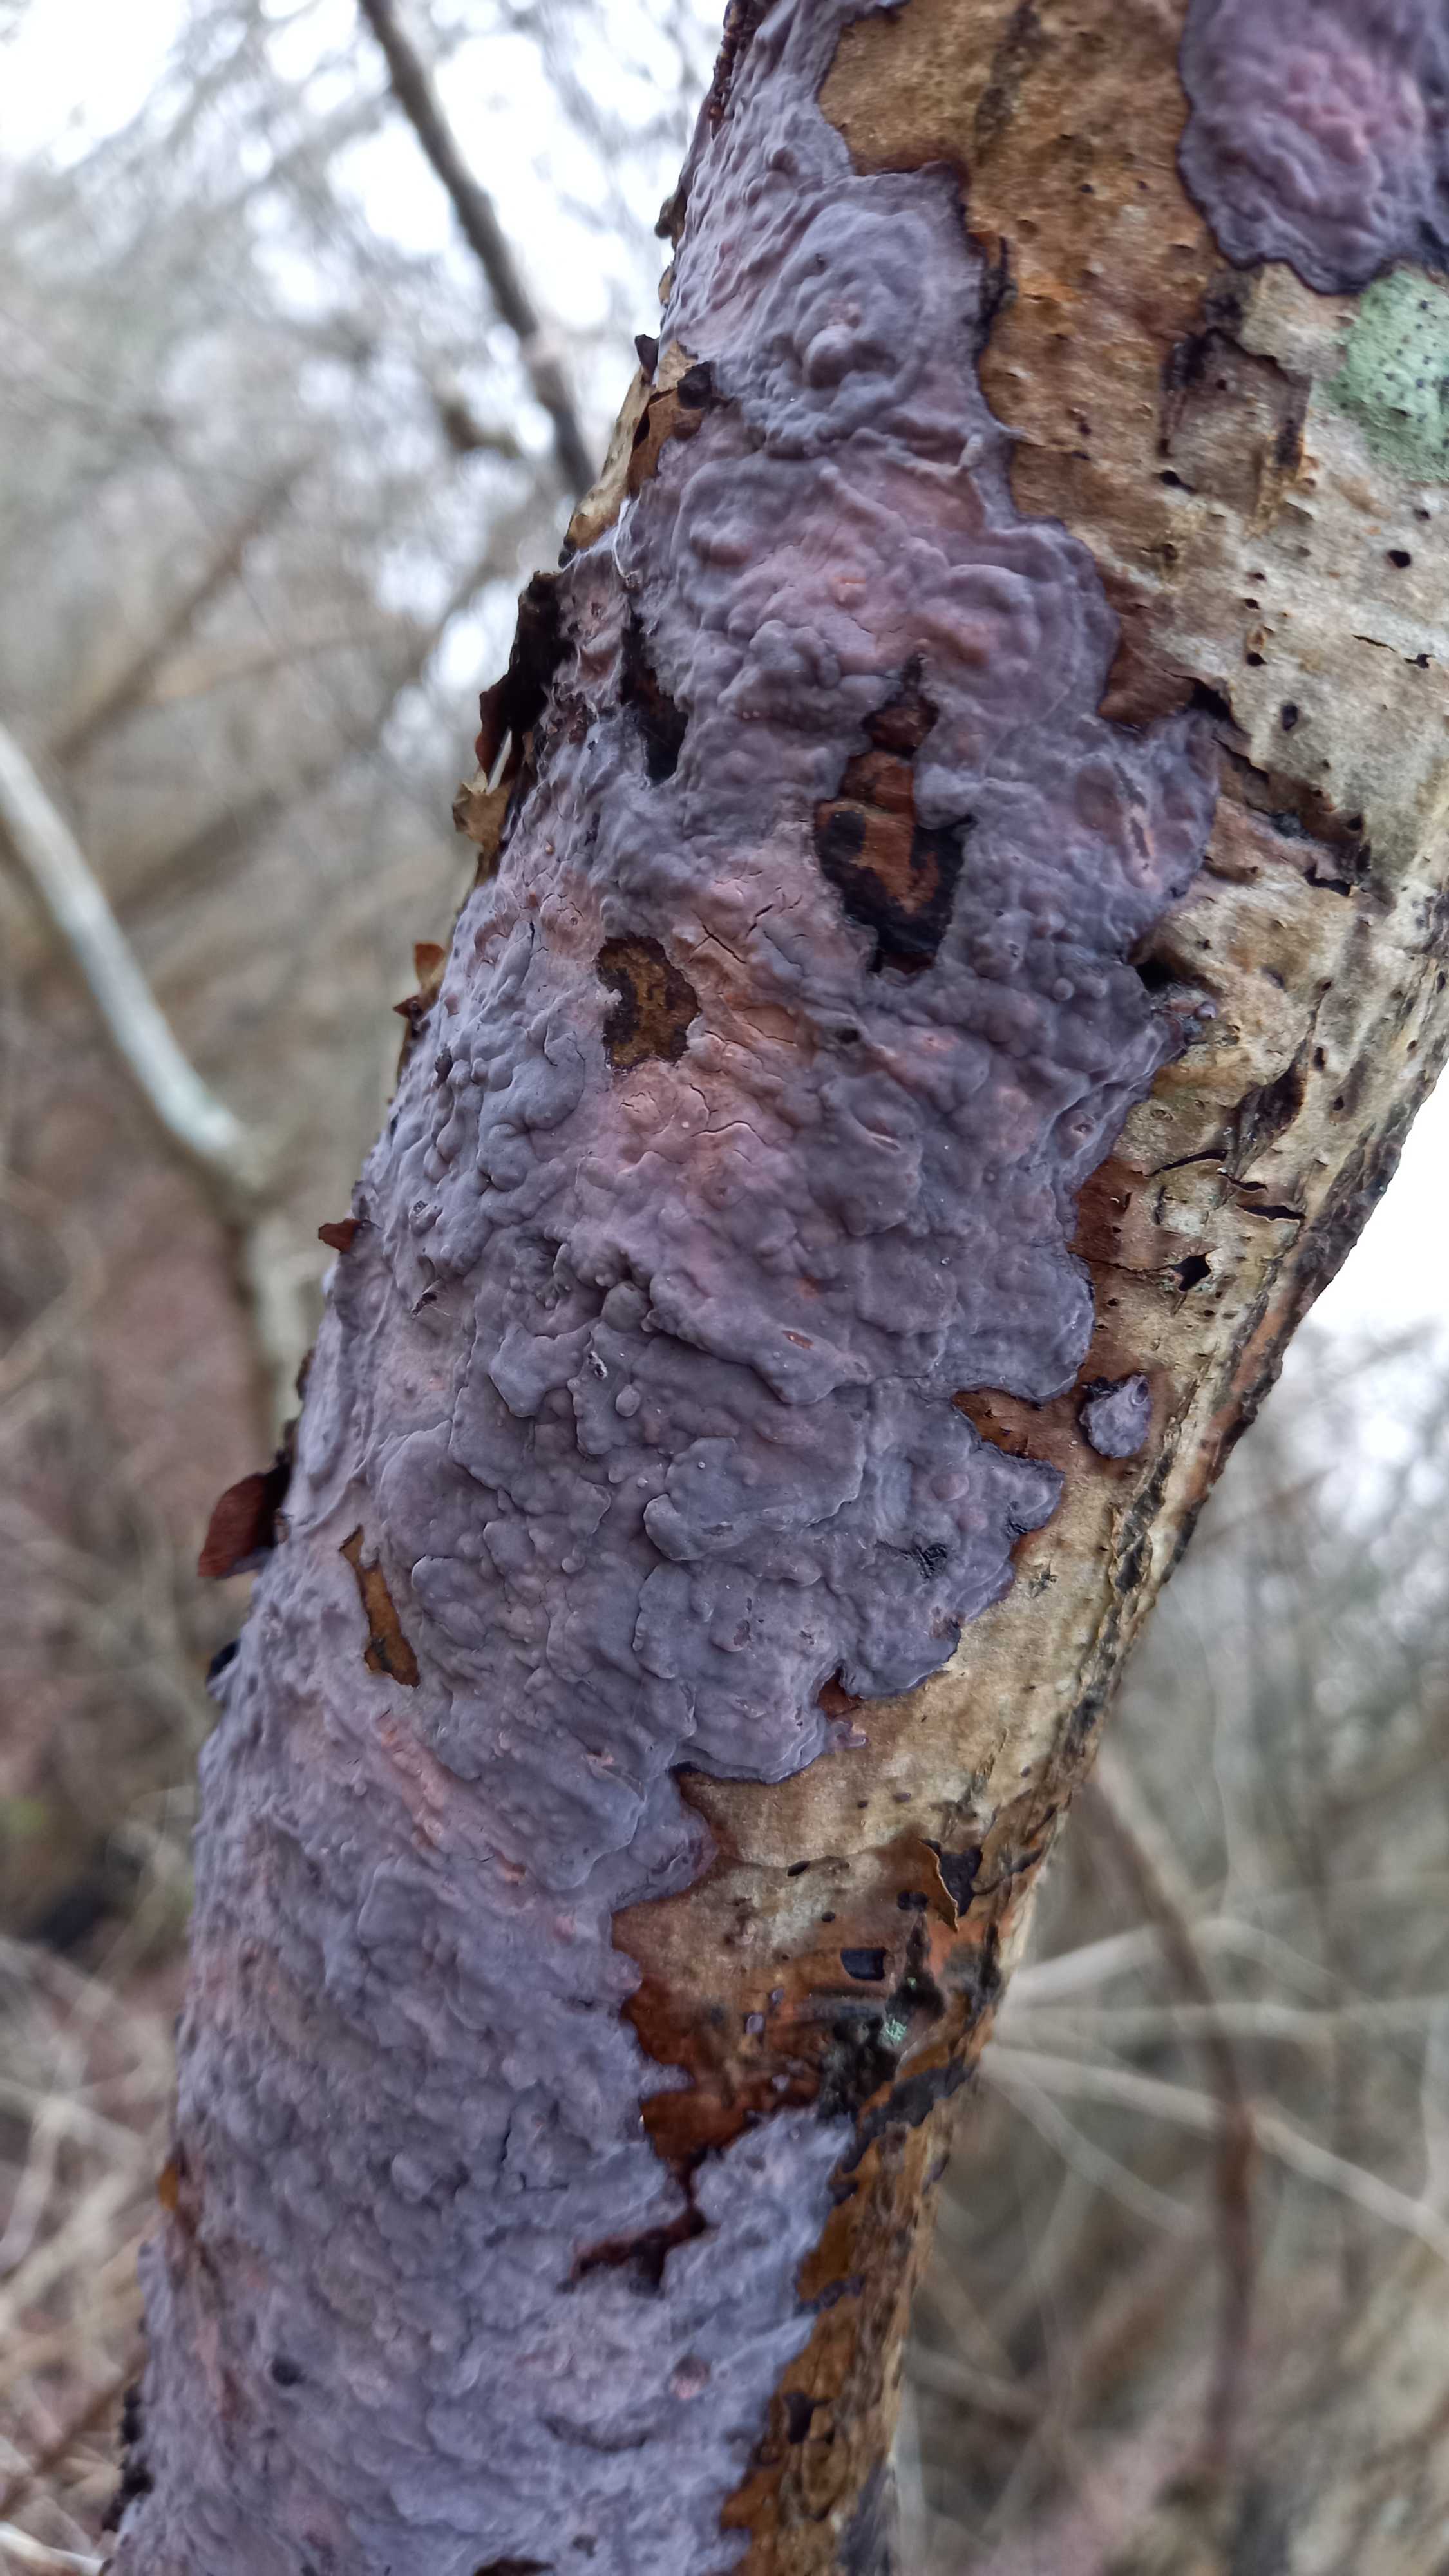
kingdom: Fungi
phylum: Basidiomycota
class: Agaricomycetes
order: Russulales
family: Peniophoraceae
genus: Peniophora
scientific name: Peniophora quercina
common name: ege-voksskind
